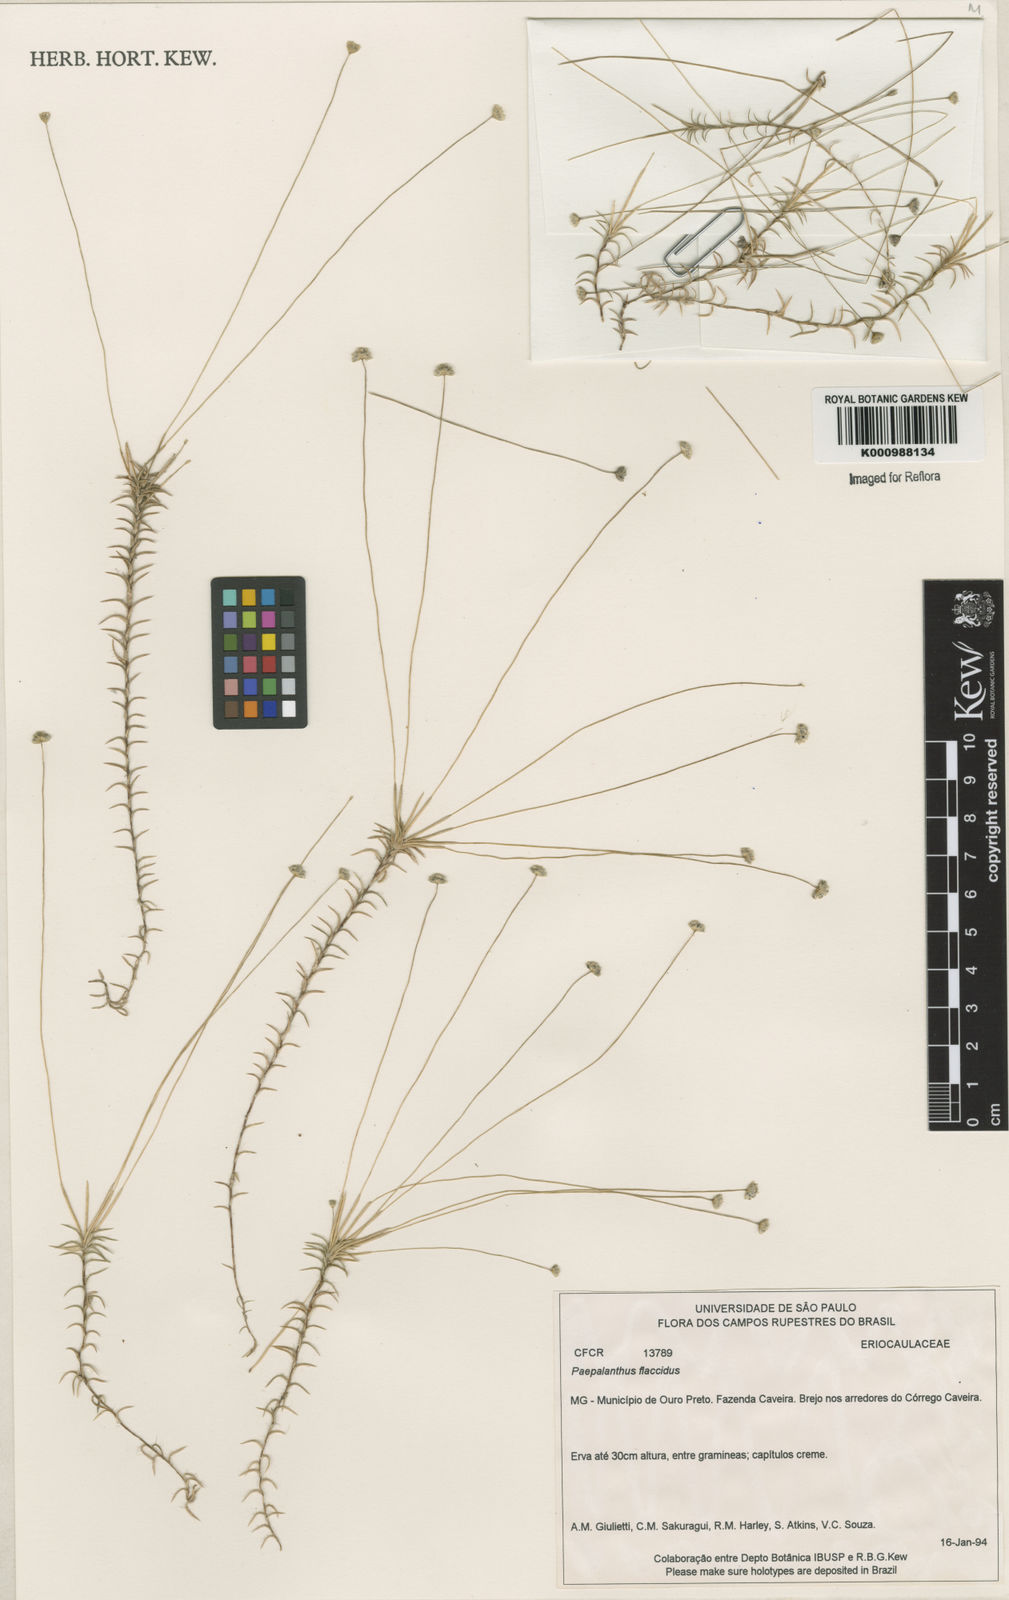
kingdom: Plantae
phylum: Tracheophyta
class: Liliopsida
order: Poales
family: Eriocaulaceae
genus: Paepalanthus
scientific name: Paepalanthus flaccidus
